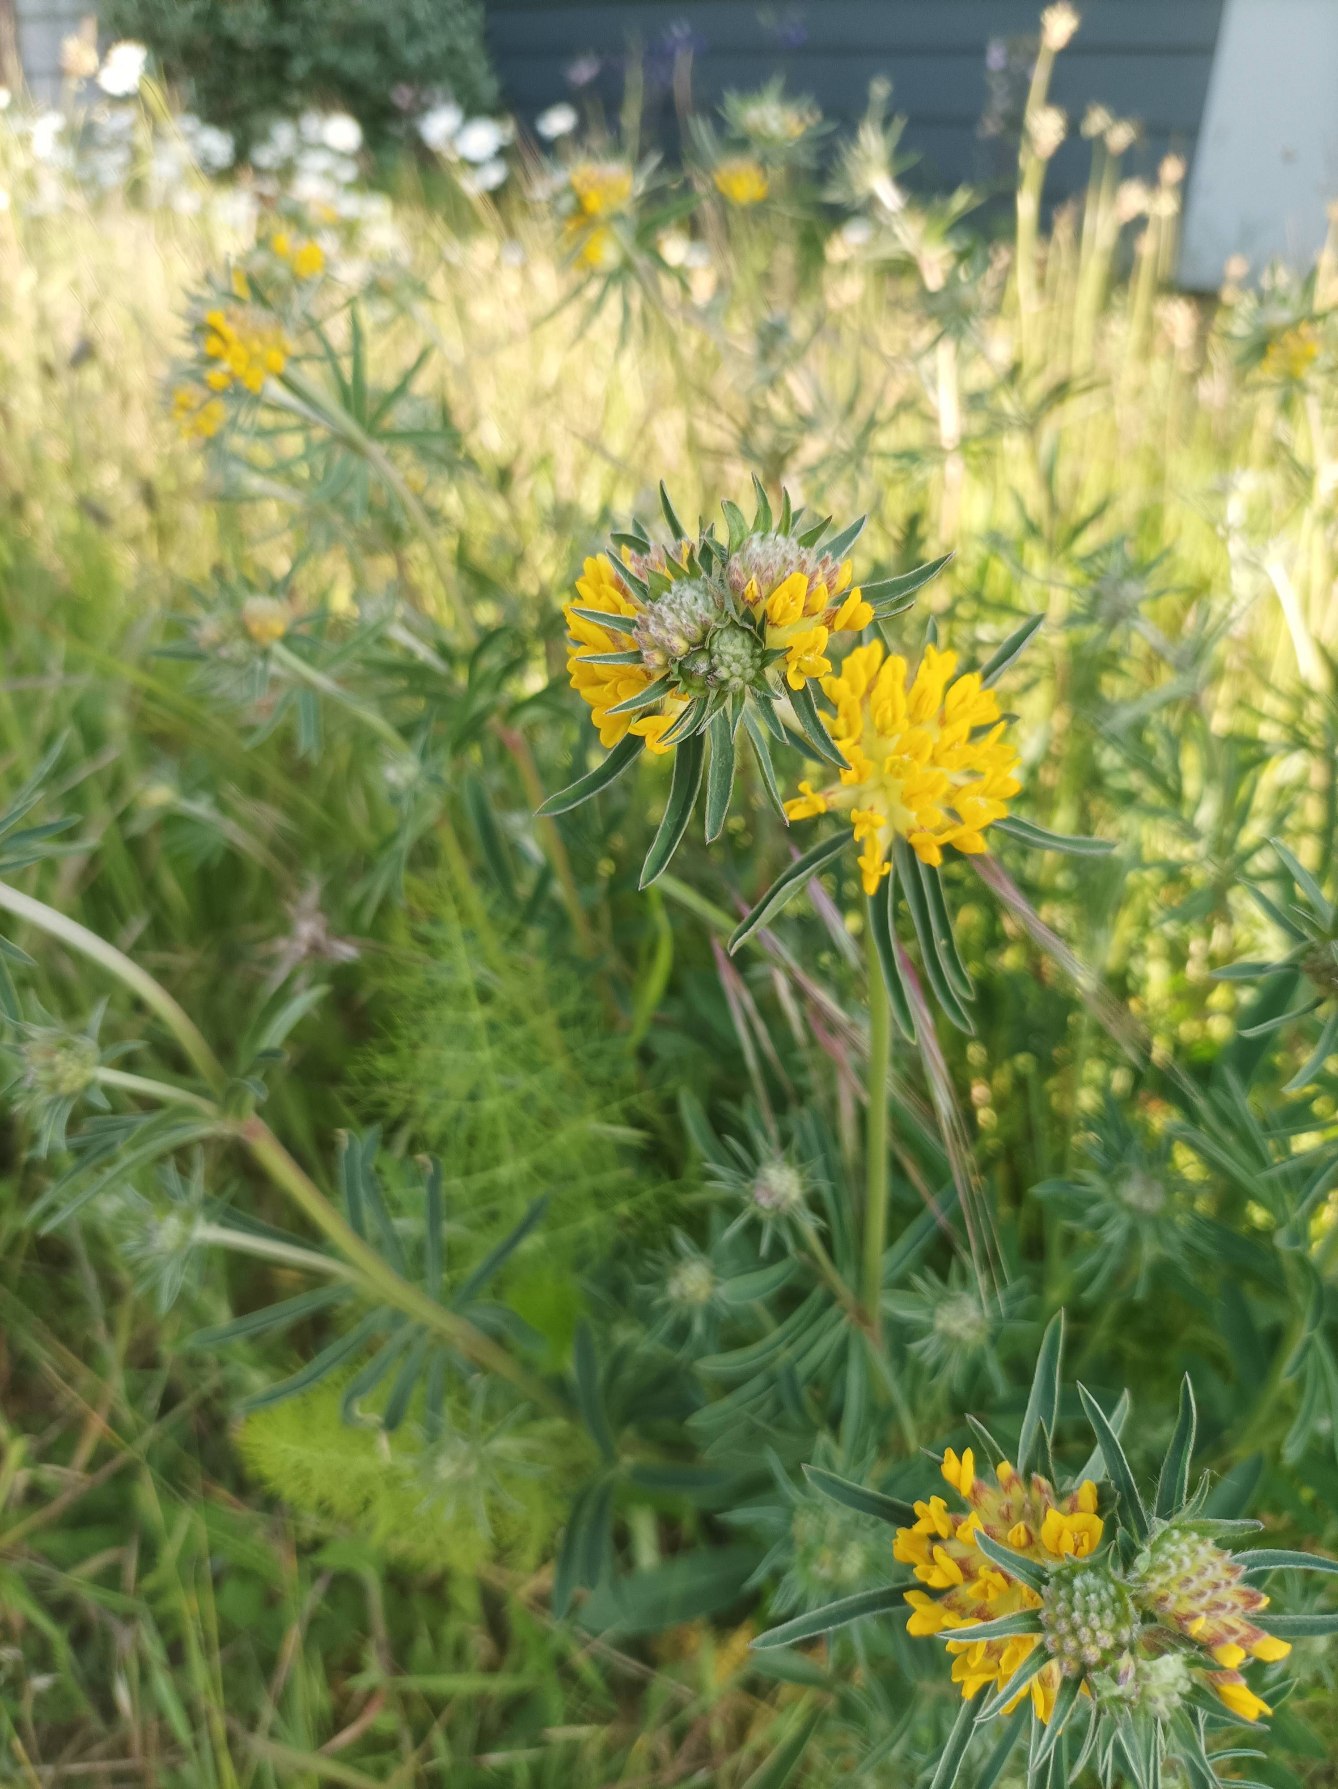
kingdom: Plantae
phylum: Tracheophyta
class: Magnoliopsida
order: Fabales
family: Fabaceae
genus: Anthyllis
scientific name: Anthyllis vulneraria
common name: Rundbælg
